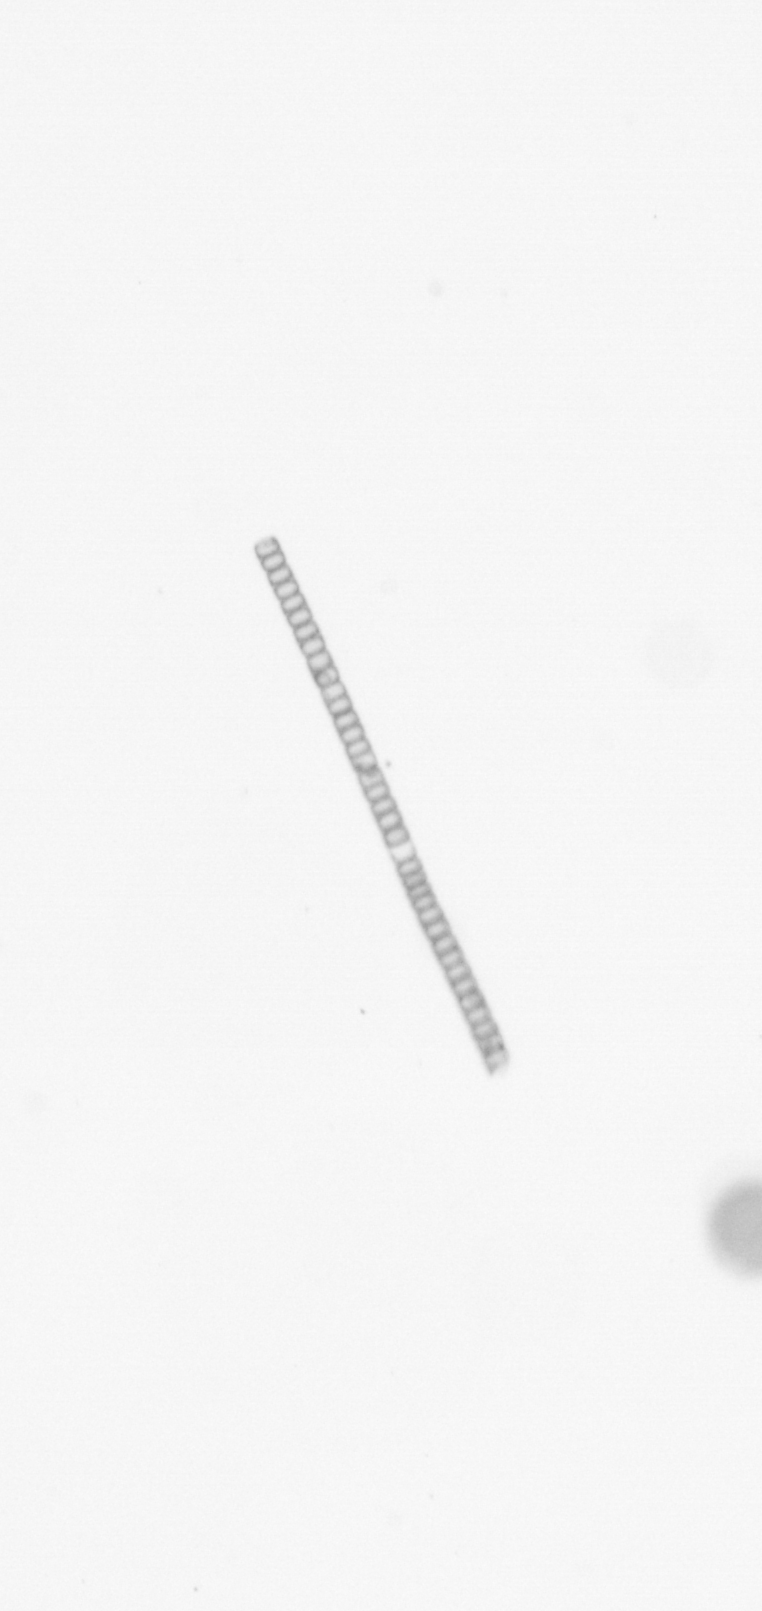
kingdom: Chromista
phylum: Ochrophyta
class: Bacillariophyceae
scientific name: Bacillariophyceae
